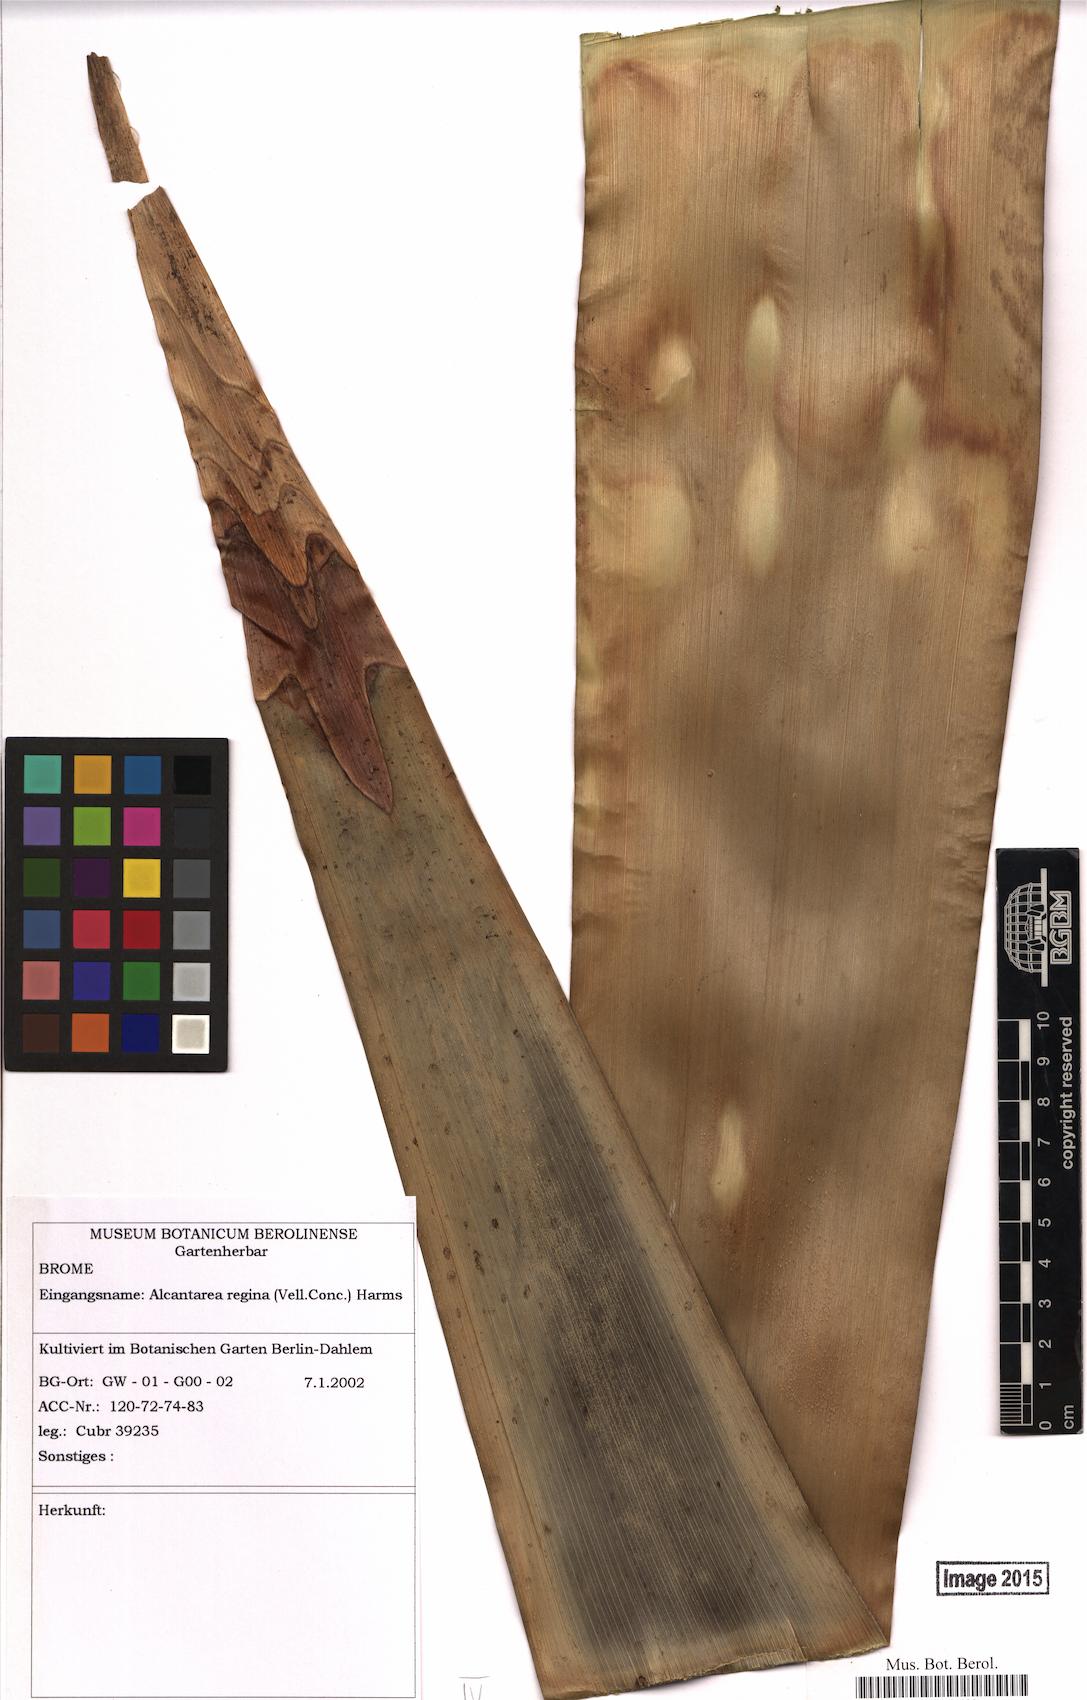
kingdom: Plantae
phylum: Tracheophyta
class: Liliopsida
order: Poales
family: Bromeliaceae
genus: Alcantarea
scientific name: Alcantarea regina
